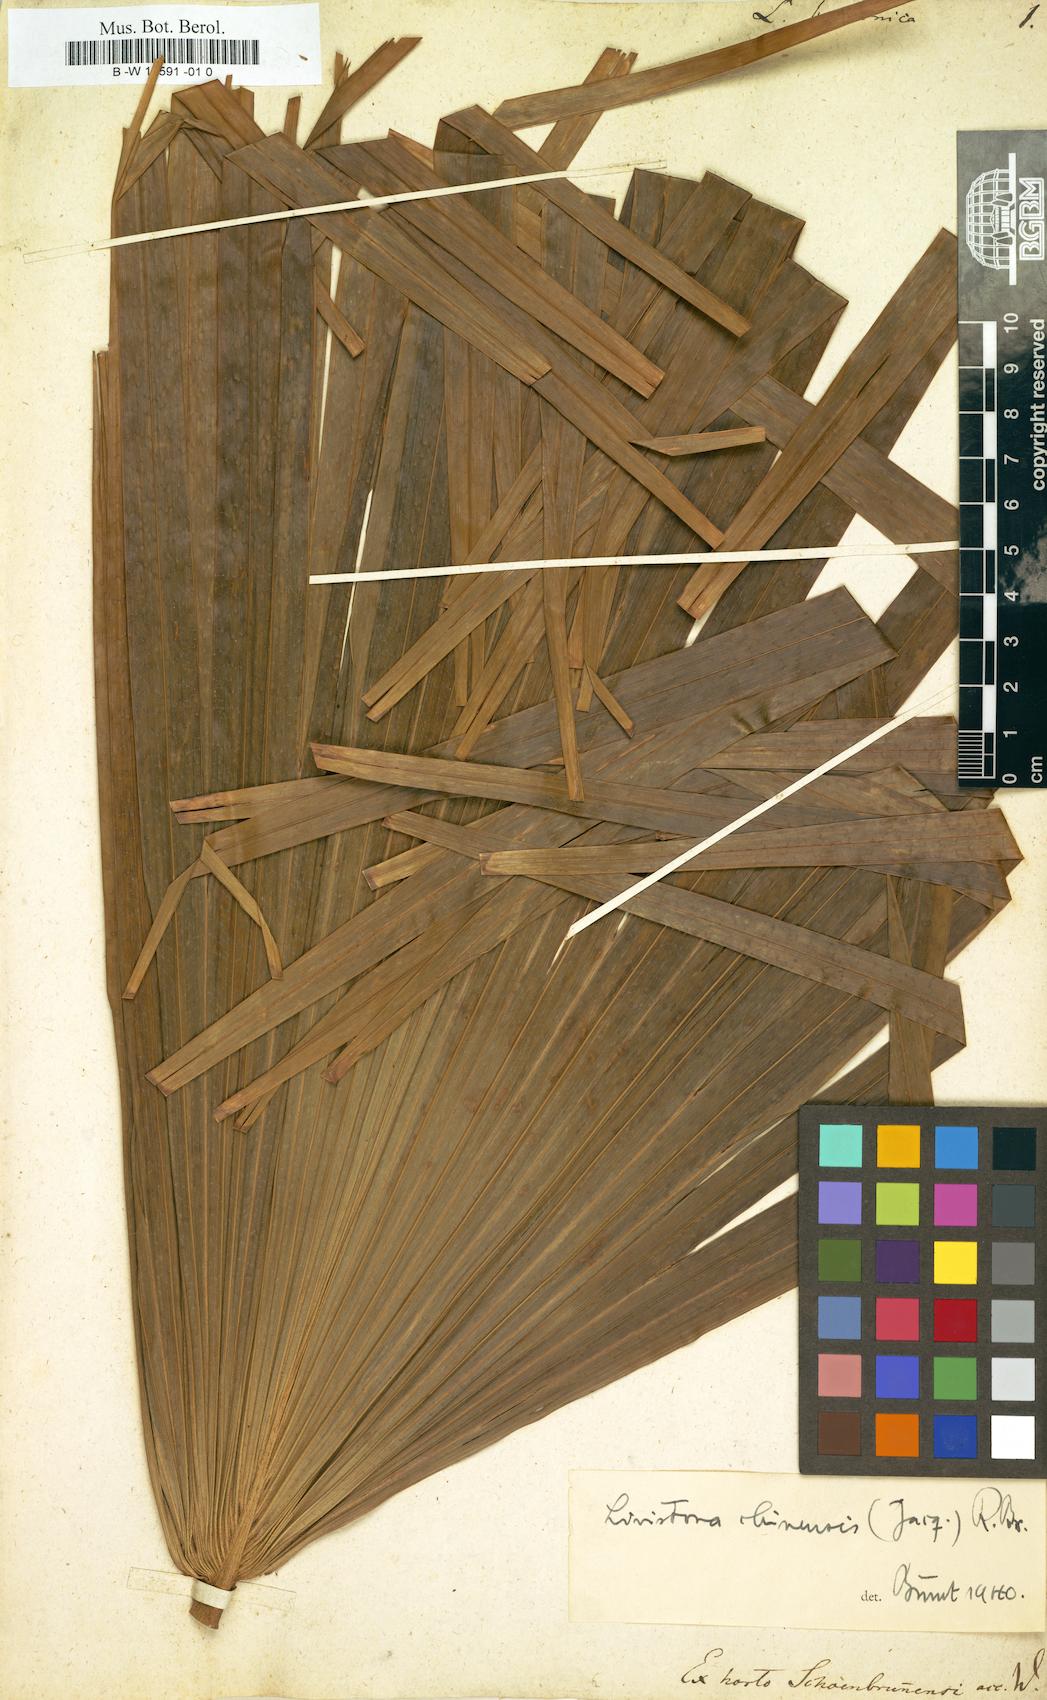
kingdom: Plantae
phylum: Tracheophyta
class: Liliopsida
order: Arecales
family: Arecaceae
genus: Latania
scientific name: Latania lontaroides
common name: Red latan
